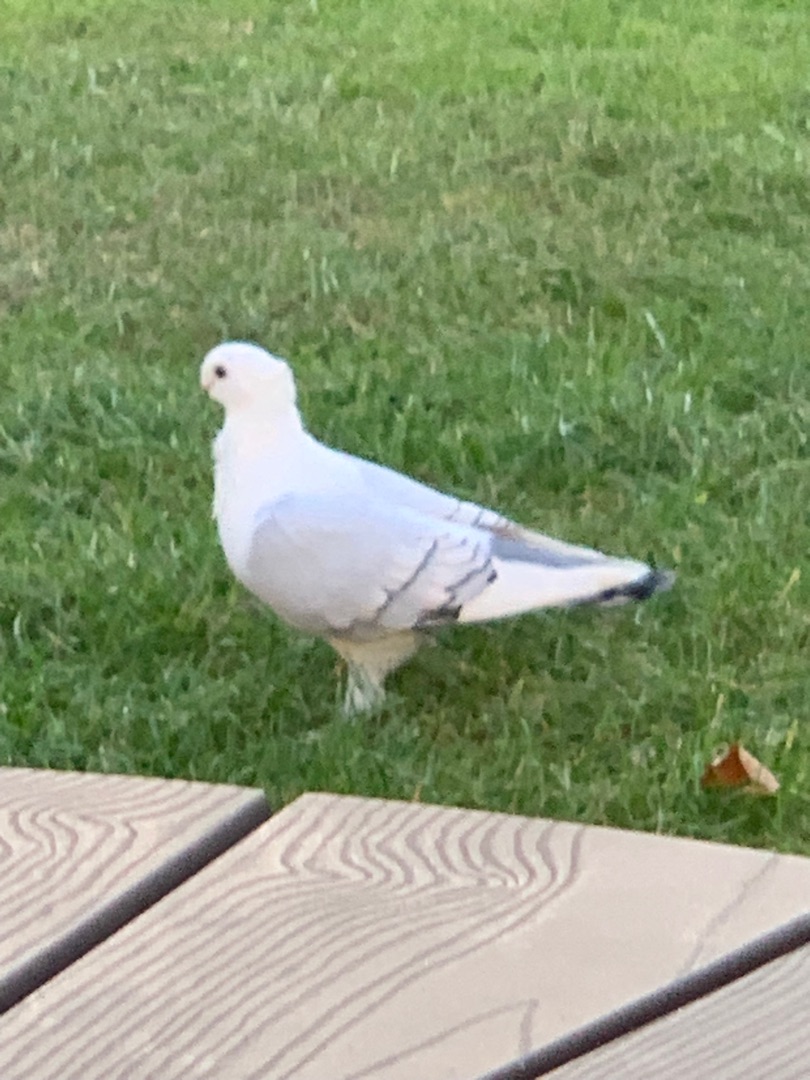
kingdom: Animalia
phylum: Chordata
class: Aves
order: Columbiformes
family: Columbidae
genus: Columba
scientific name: Columba livia
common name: Tamdue
